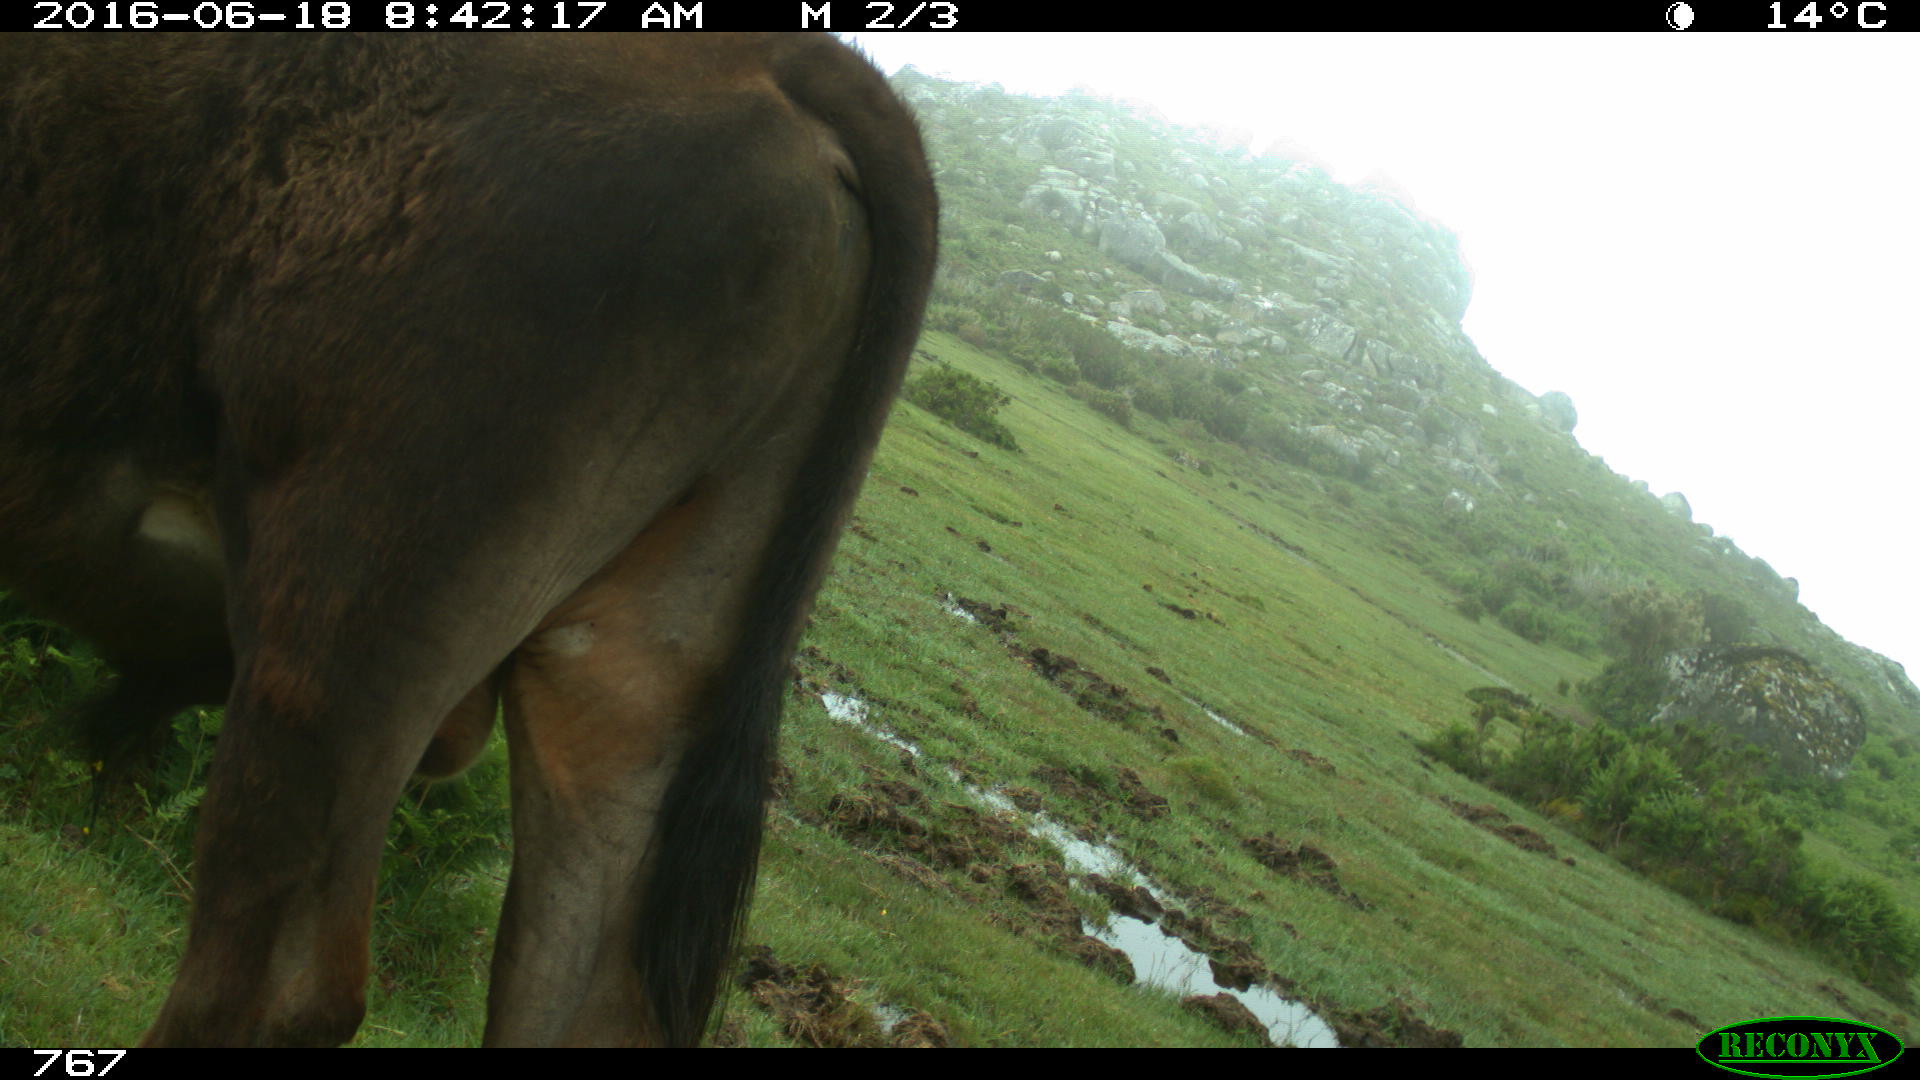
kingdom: Animalia
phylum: Chordata
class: Mammalia
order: Artiodactyla
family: Bovidae
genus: Bos
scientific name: Bos taurus
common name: Domesticated cattle
